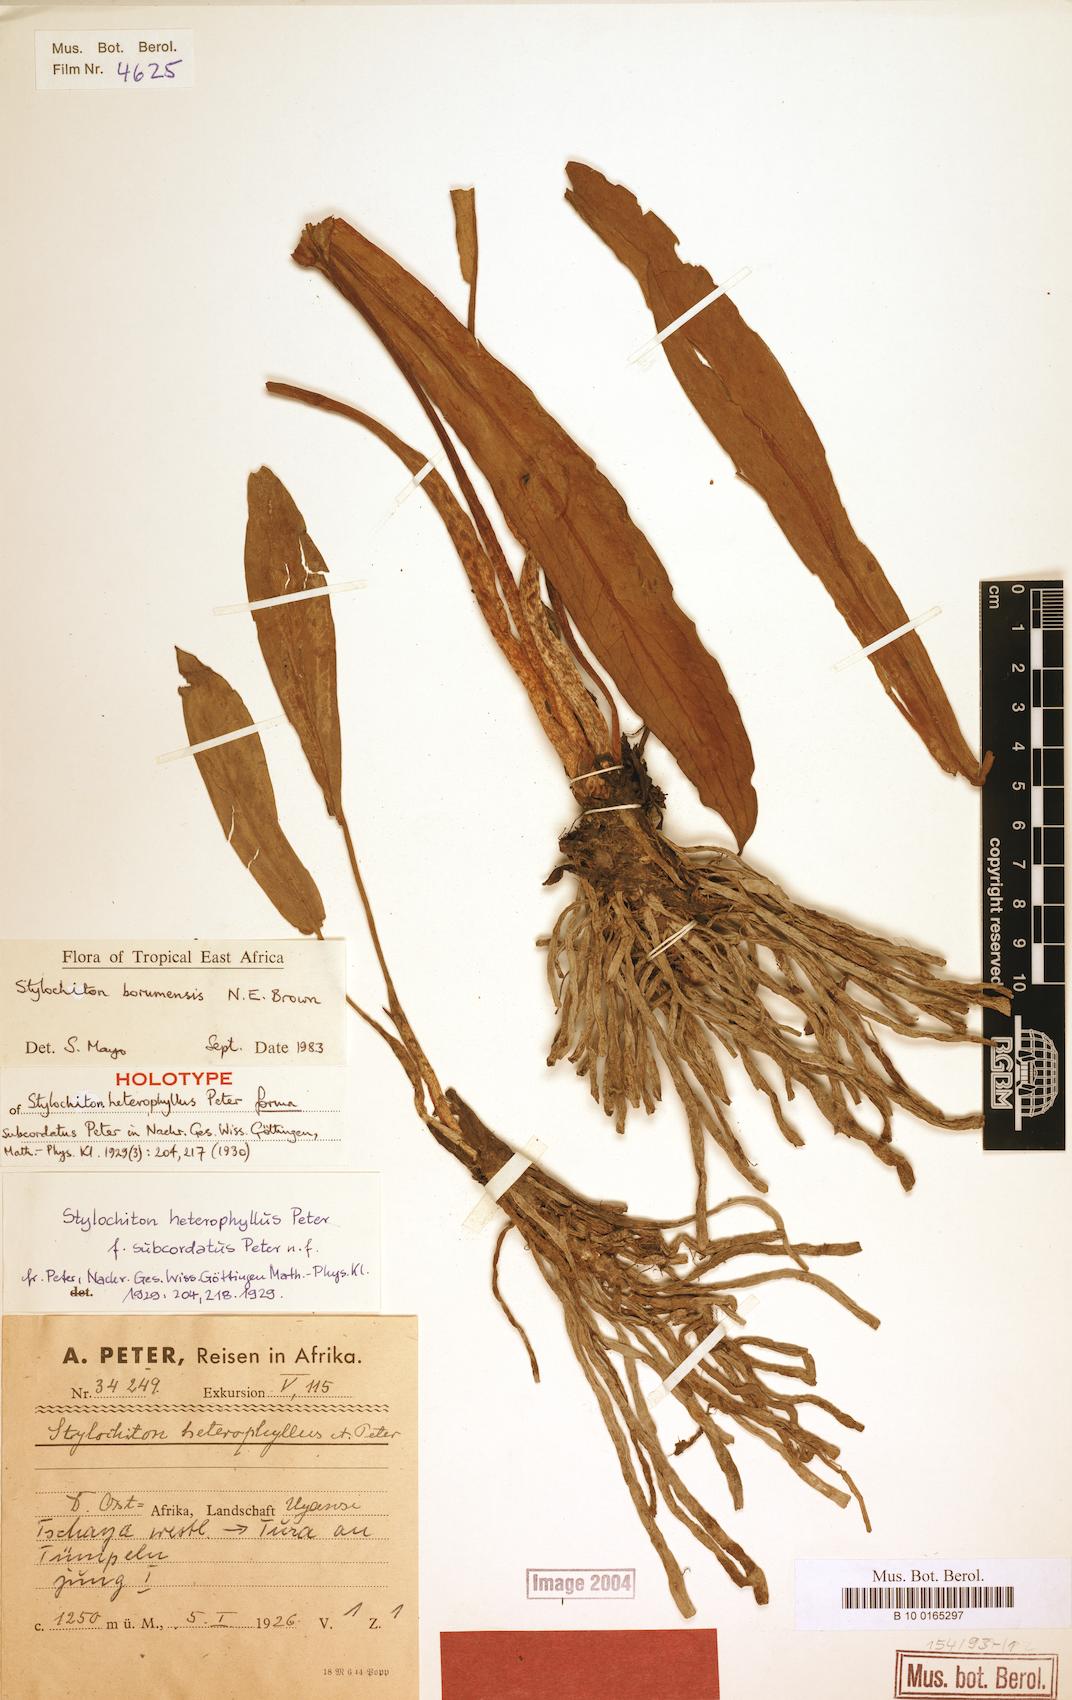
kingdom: Plantae
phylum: Tracheophyta
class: Liliopsida
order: Alismatales
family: Araceae
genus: Stylochiton
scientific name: Stylochiton borumensis
